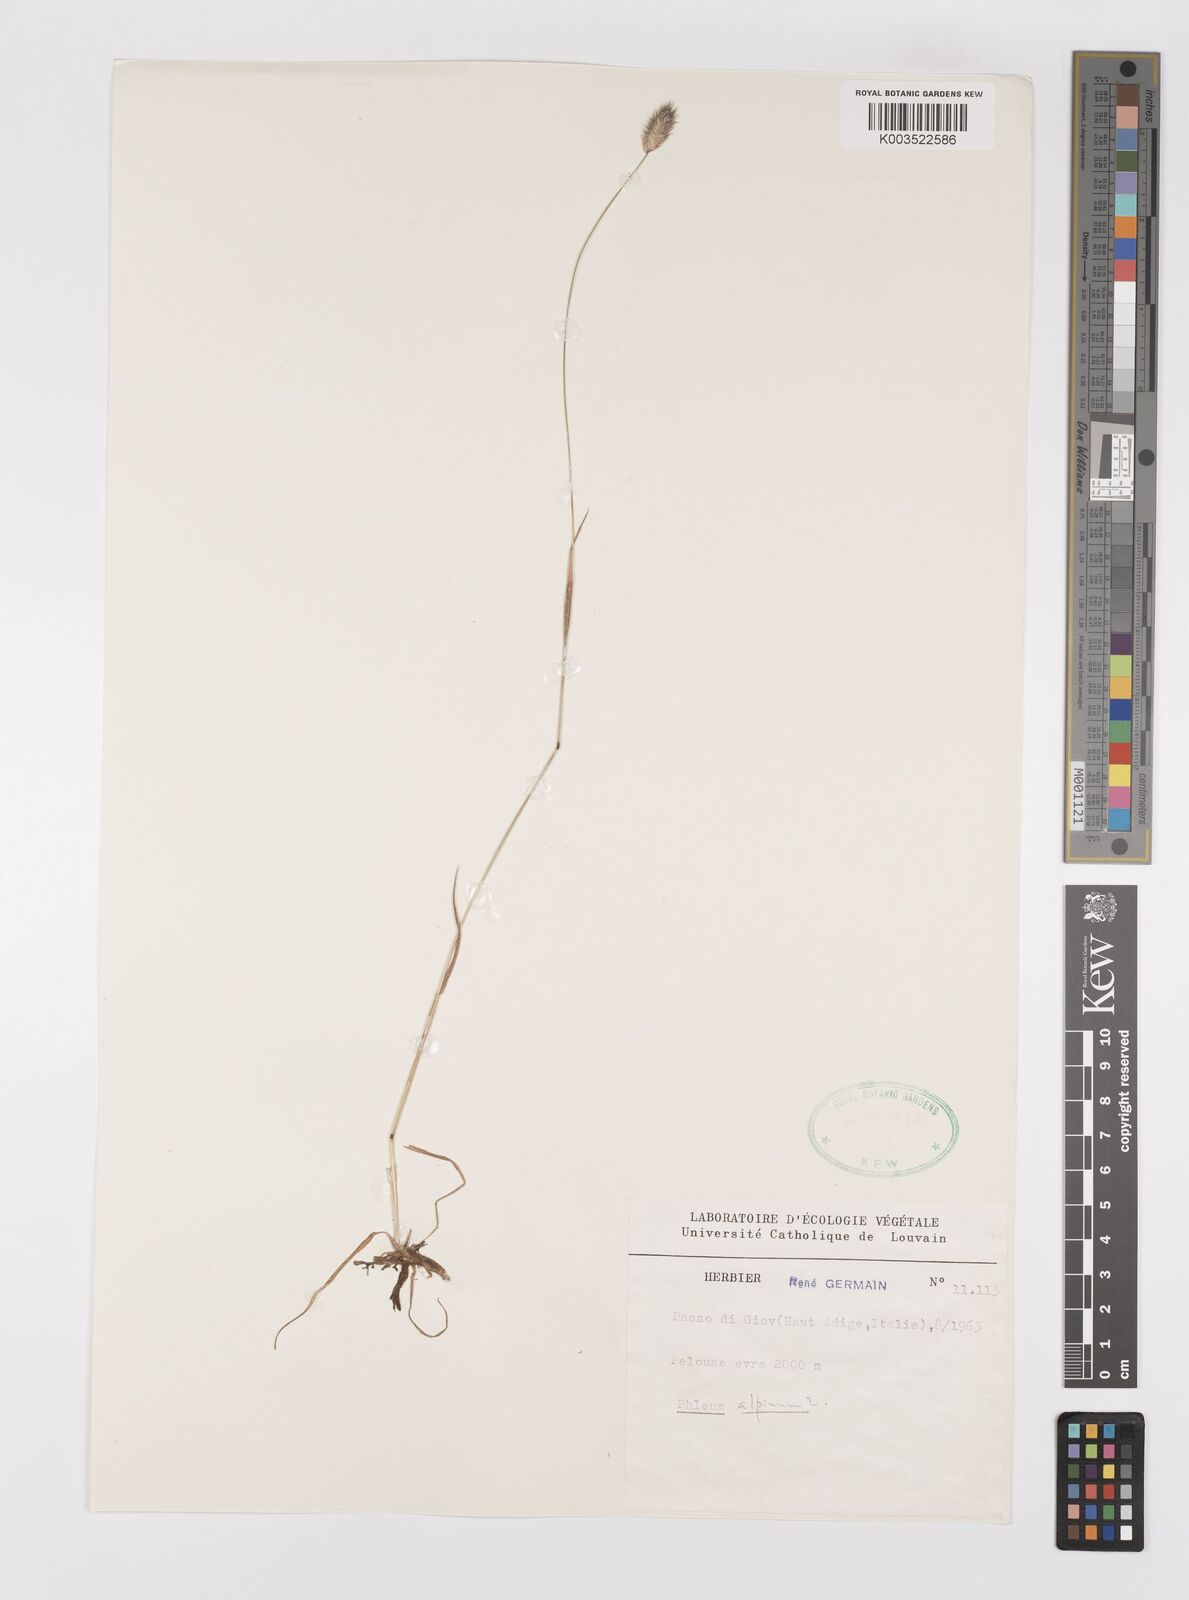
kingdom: Plantae
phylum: Tracheophyta
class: Liliopsida
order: Poales
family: Poaceae
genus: Phleum
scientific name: Phleum alpinum
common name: Alpine cat's-tail
